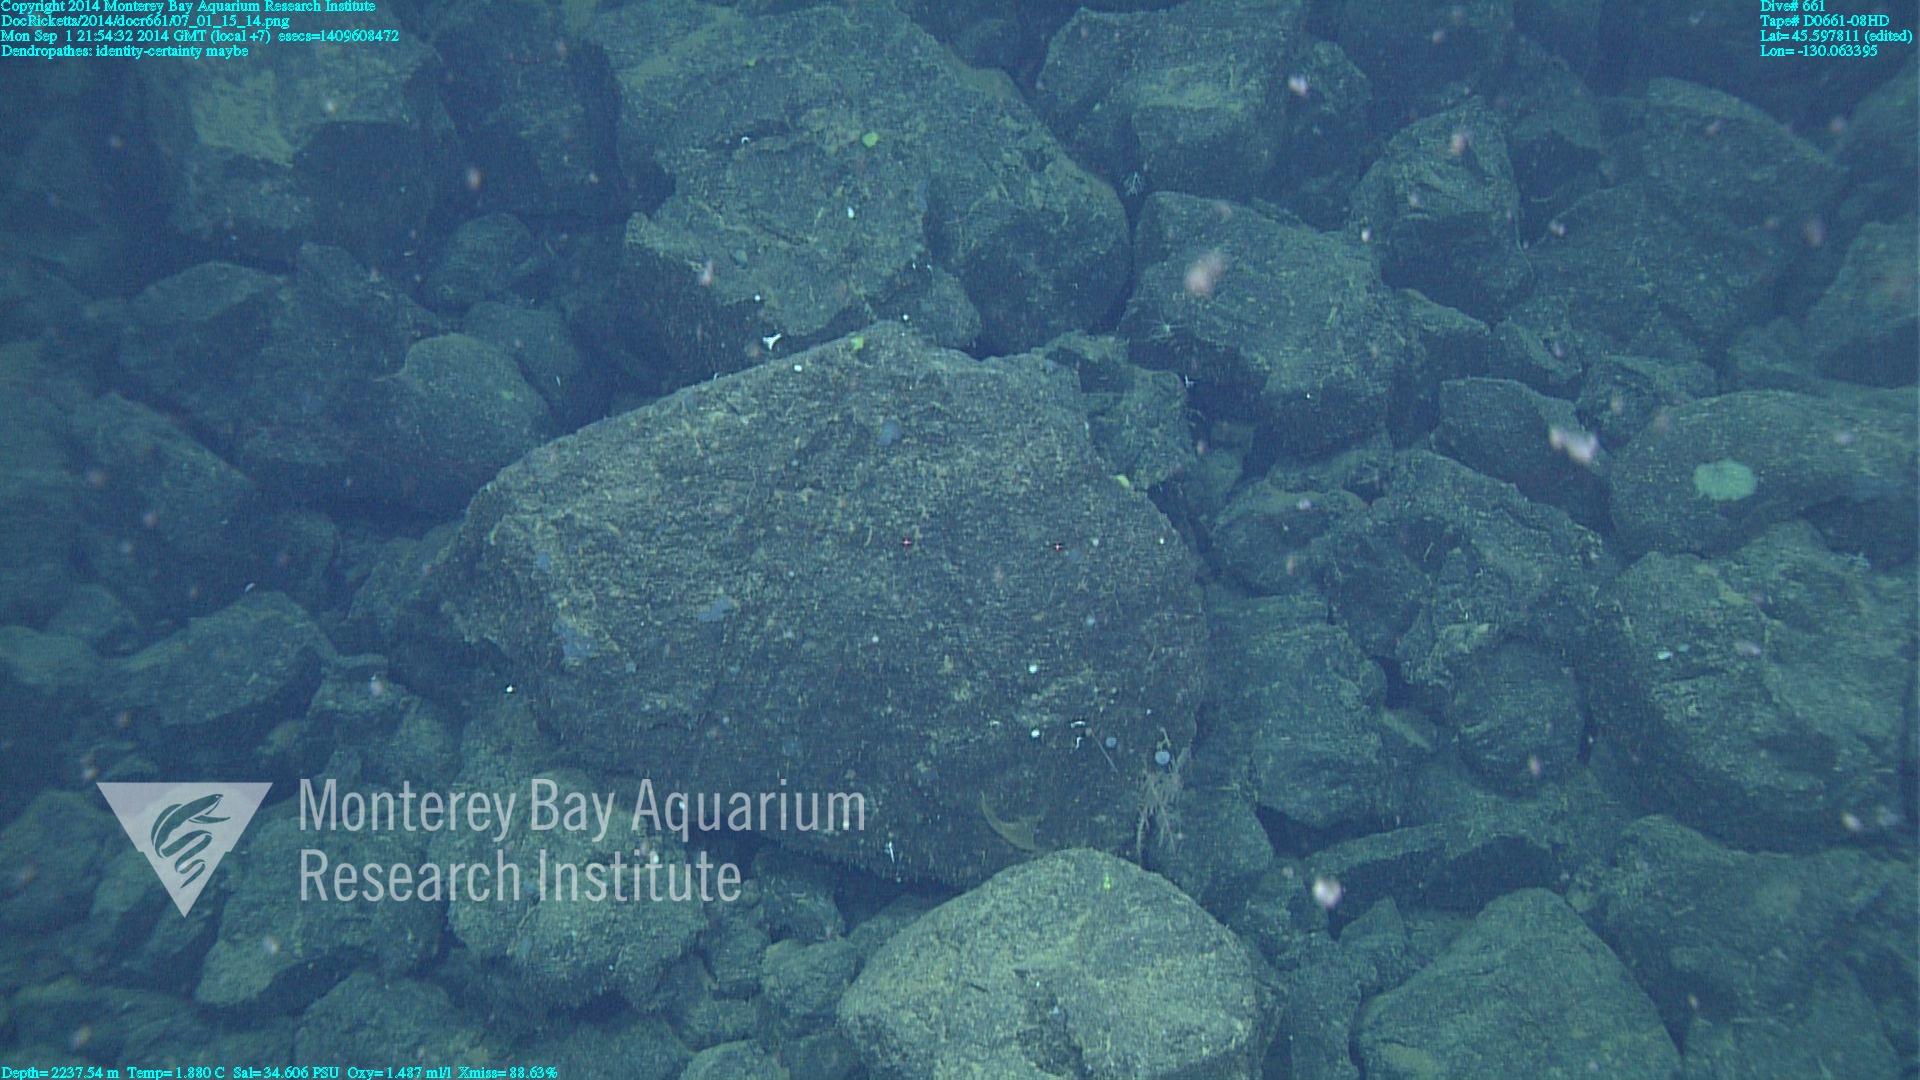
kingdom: Animalia
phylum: Cnidaria
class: Anthozoa
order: Antipatharia
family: Schizopathidae
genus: Dendropathes
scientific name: Dendropathes
